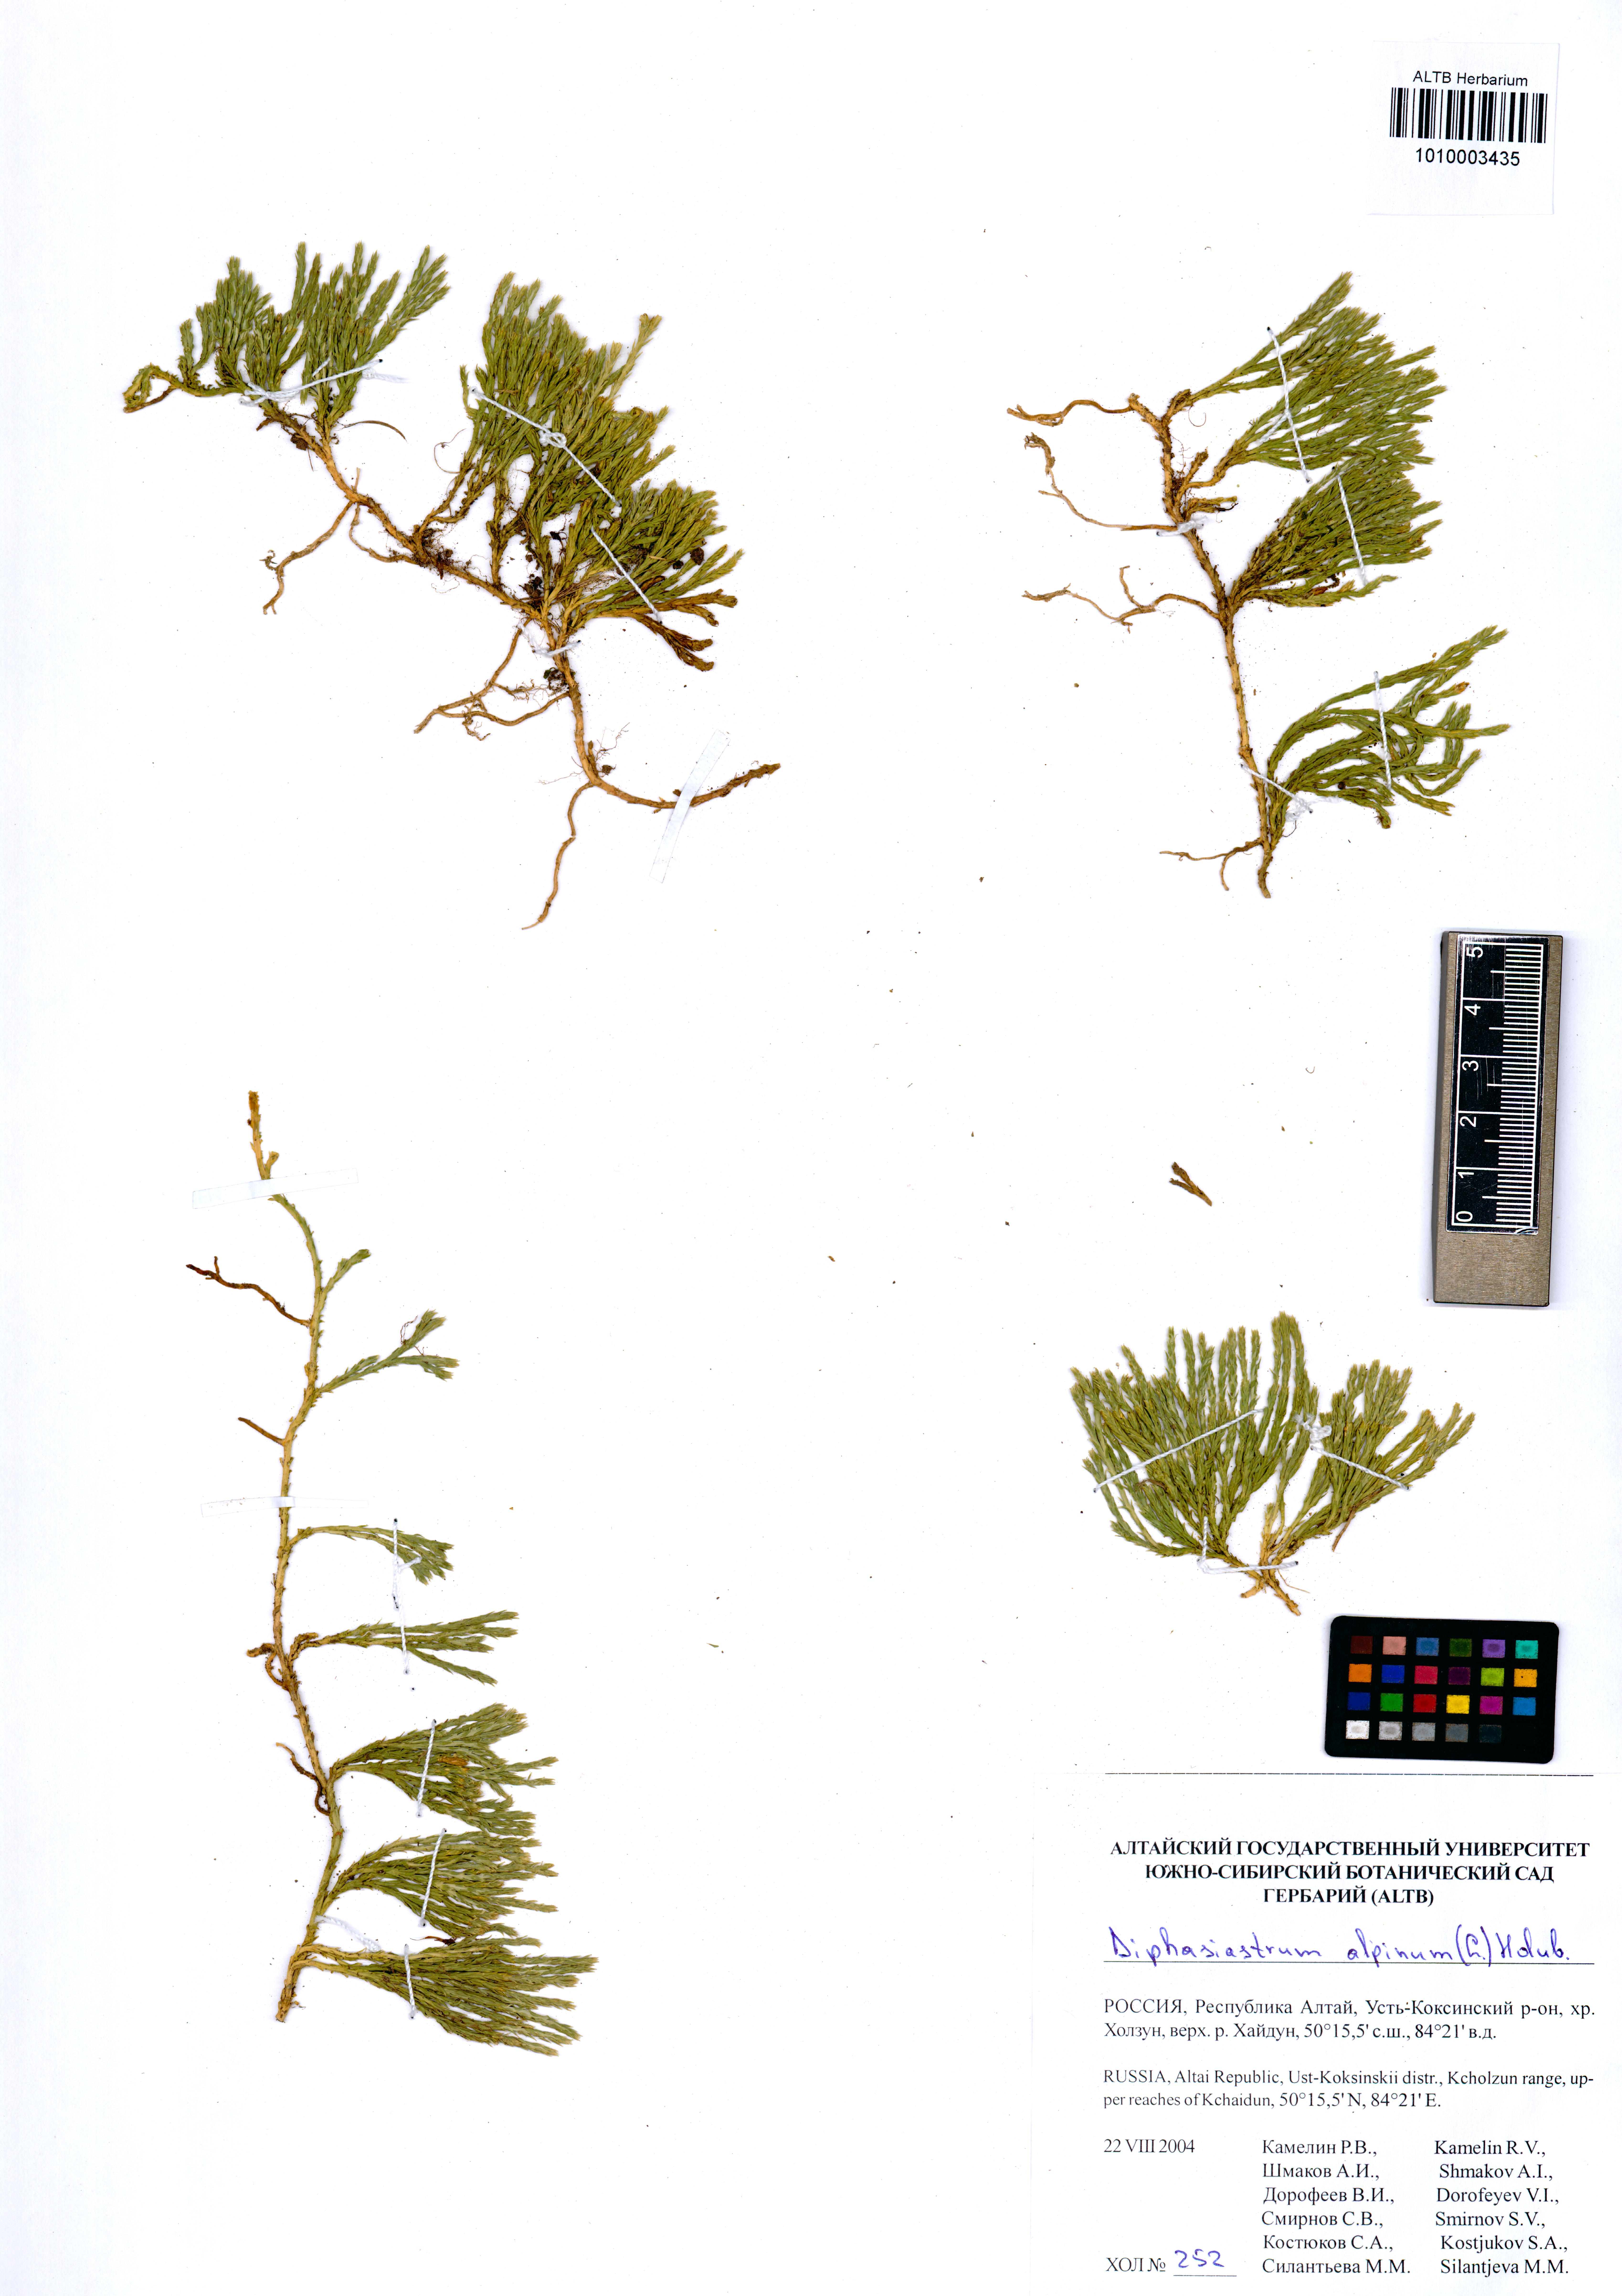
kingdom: Plantae
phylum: Tracheophyta
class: Lycopodiopsida
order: Lycopodiales
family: Lycopodiaceae
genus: Diphasiastrum
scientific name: Diphasiastrum alpinum
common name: Alpine clubmoss
